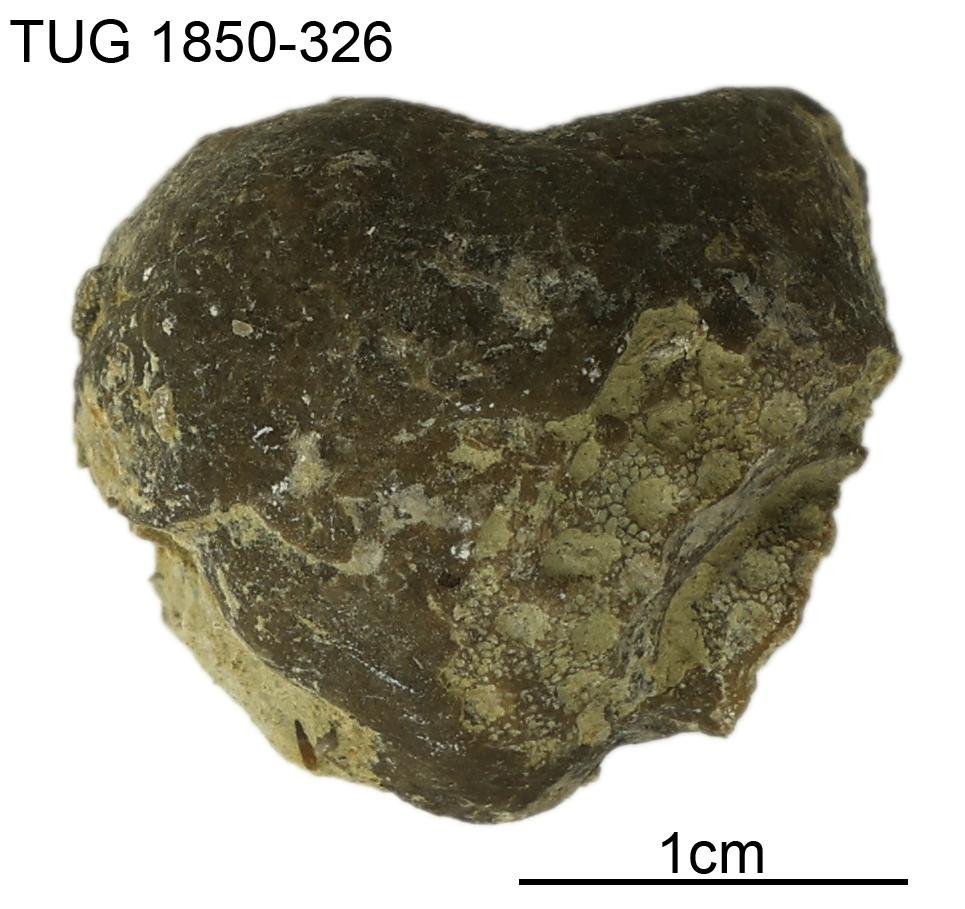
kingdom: Animalia
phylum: Porifera
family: Pseudolabechiidae
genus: Pseudolabechia
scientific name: Pseudolabechia
